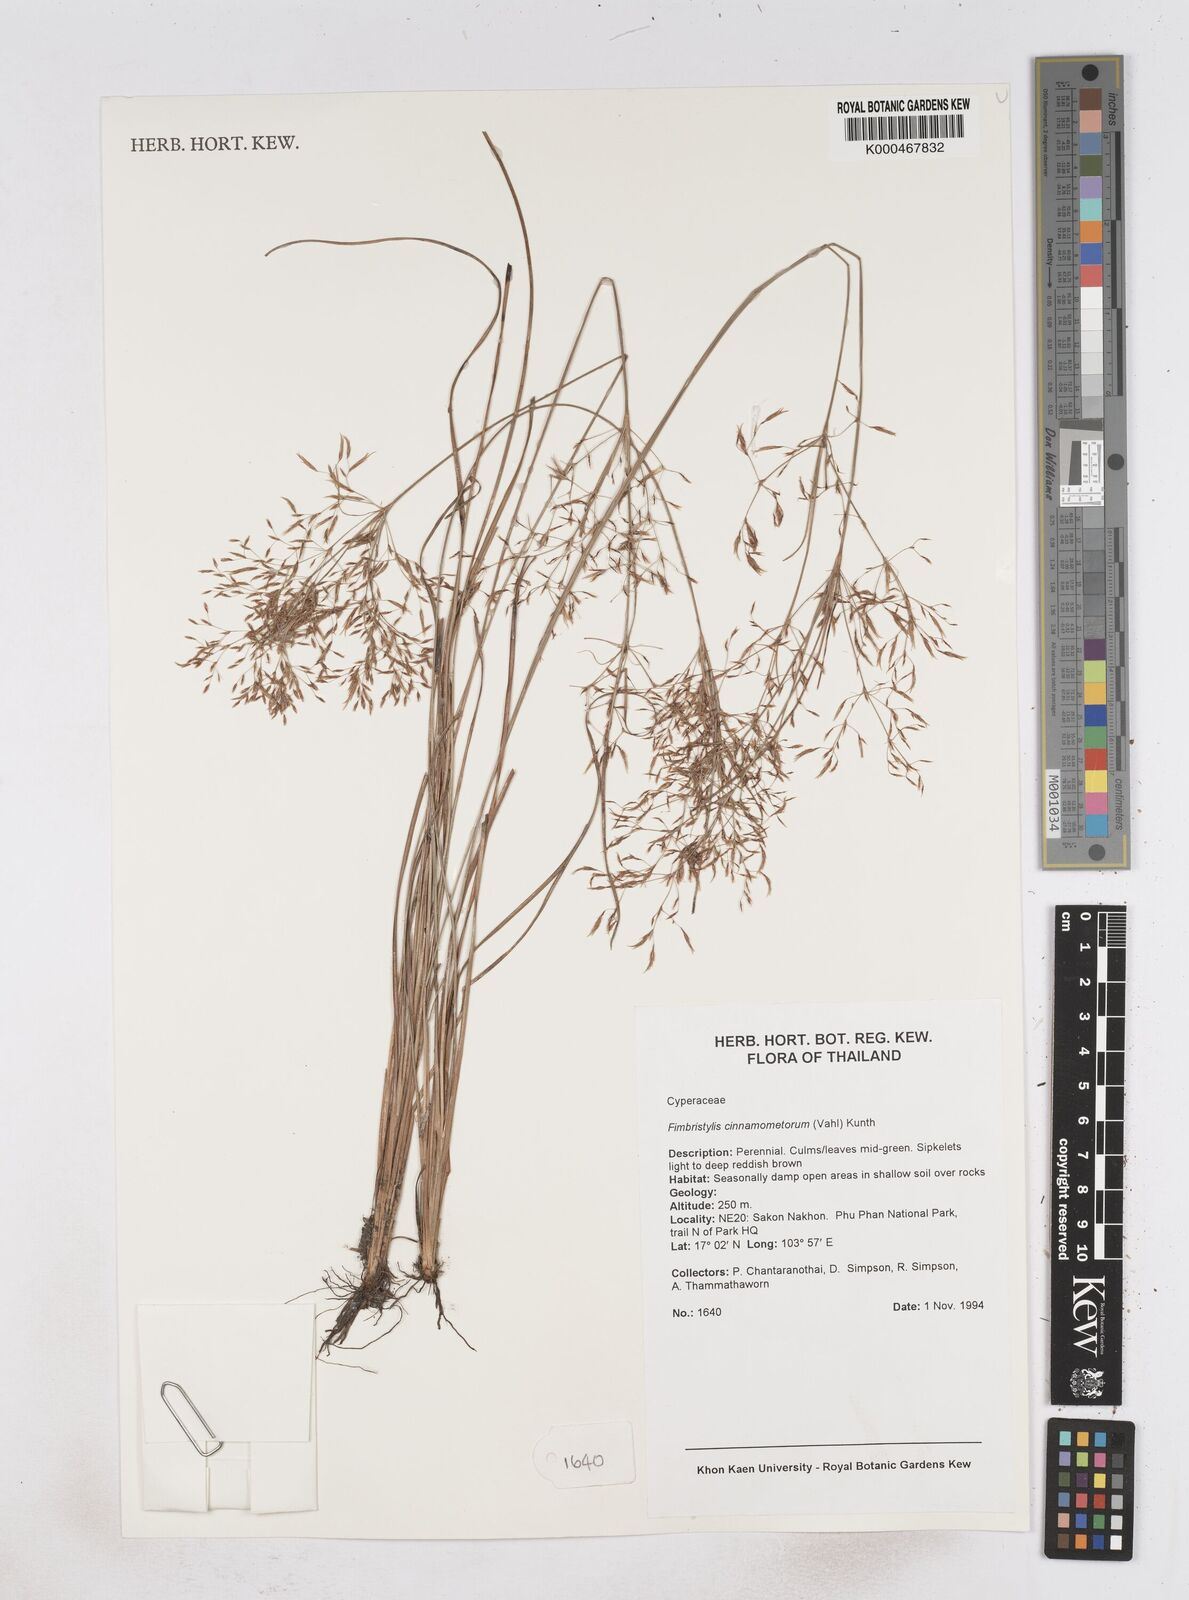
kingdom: Plantae
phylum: Tracheophyta
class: Liliopsida
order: Poales
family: Cyperaceae
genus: Fimbristylis
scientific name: Fimbristylis cinnamometorum
